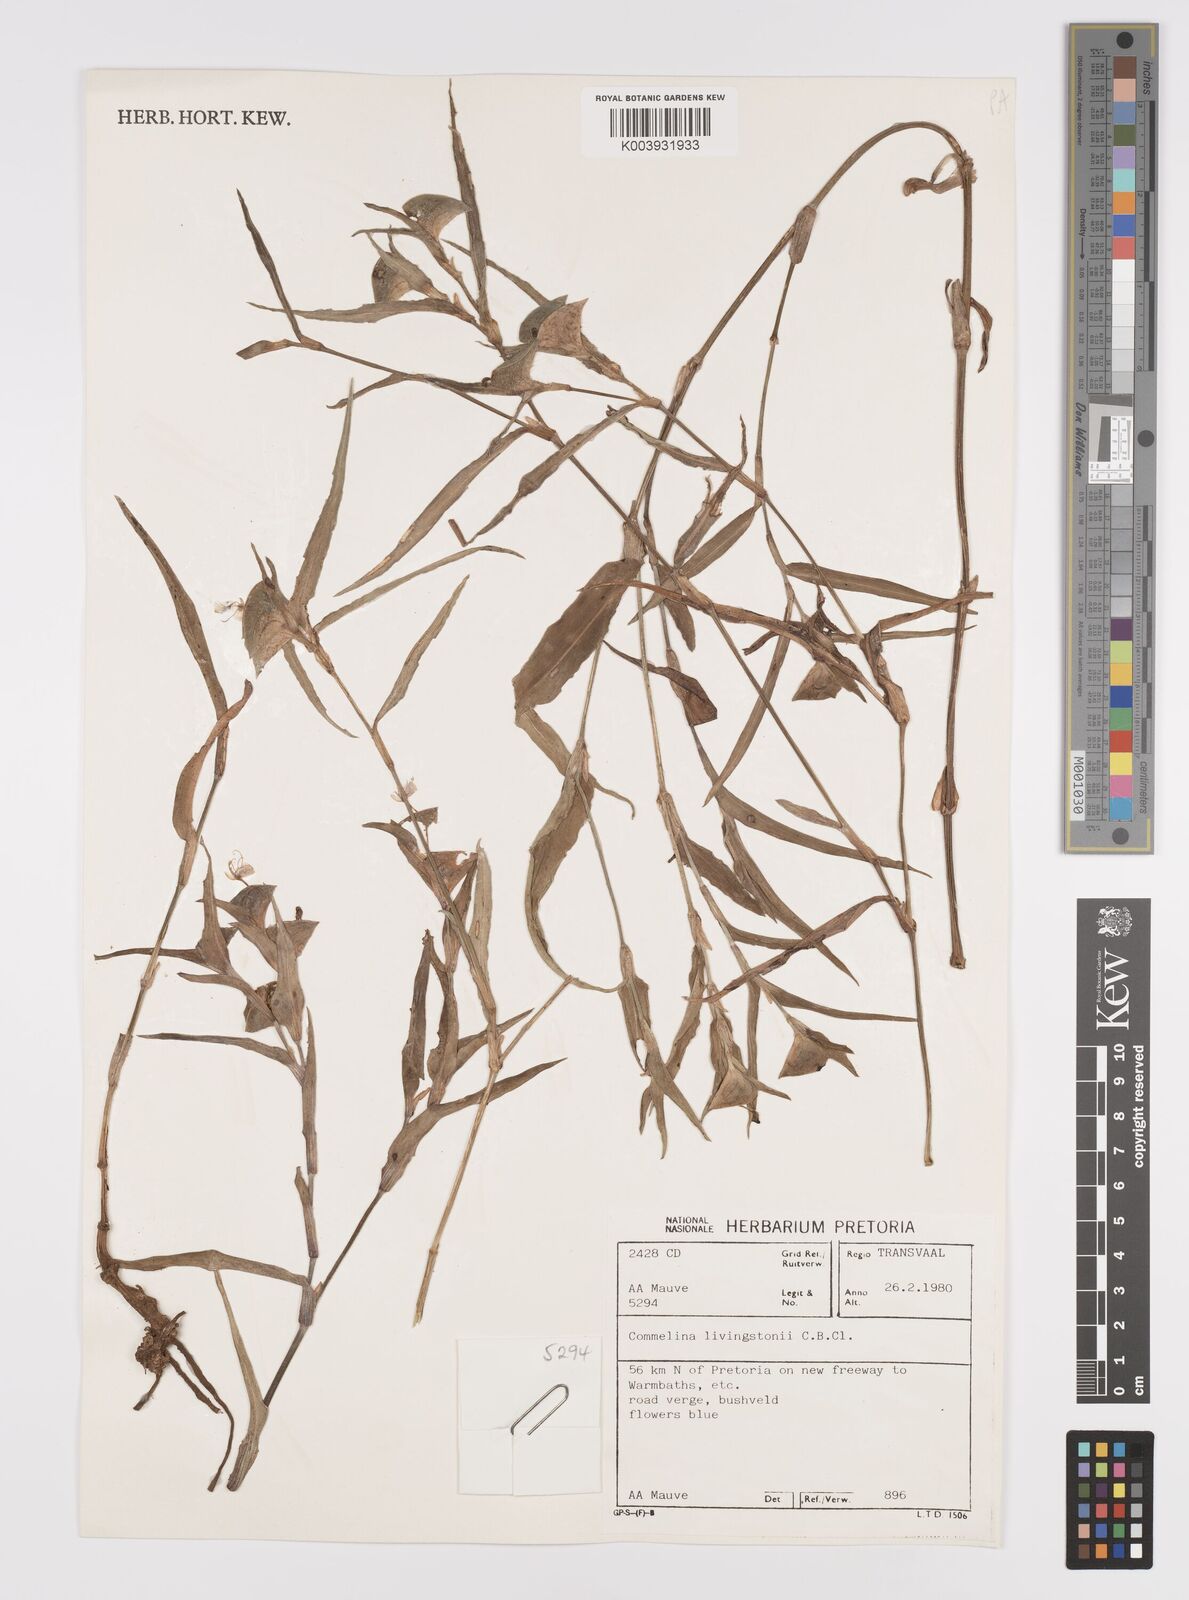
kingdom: Plantae
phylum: Tracheophyta
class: Liliopsida
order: Commelinales
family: Commelinaceae
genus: Commelina
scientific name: Commelina erecta
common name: Blousel blommetjie
